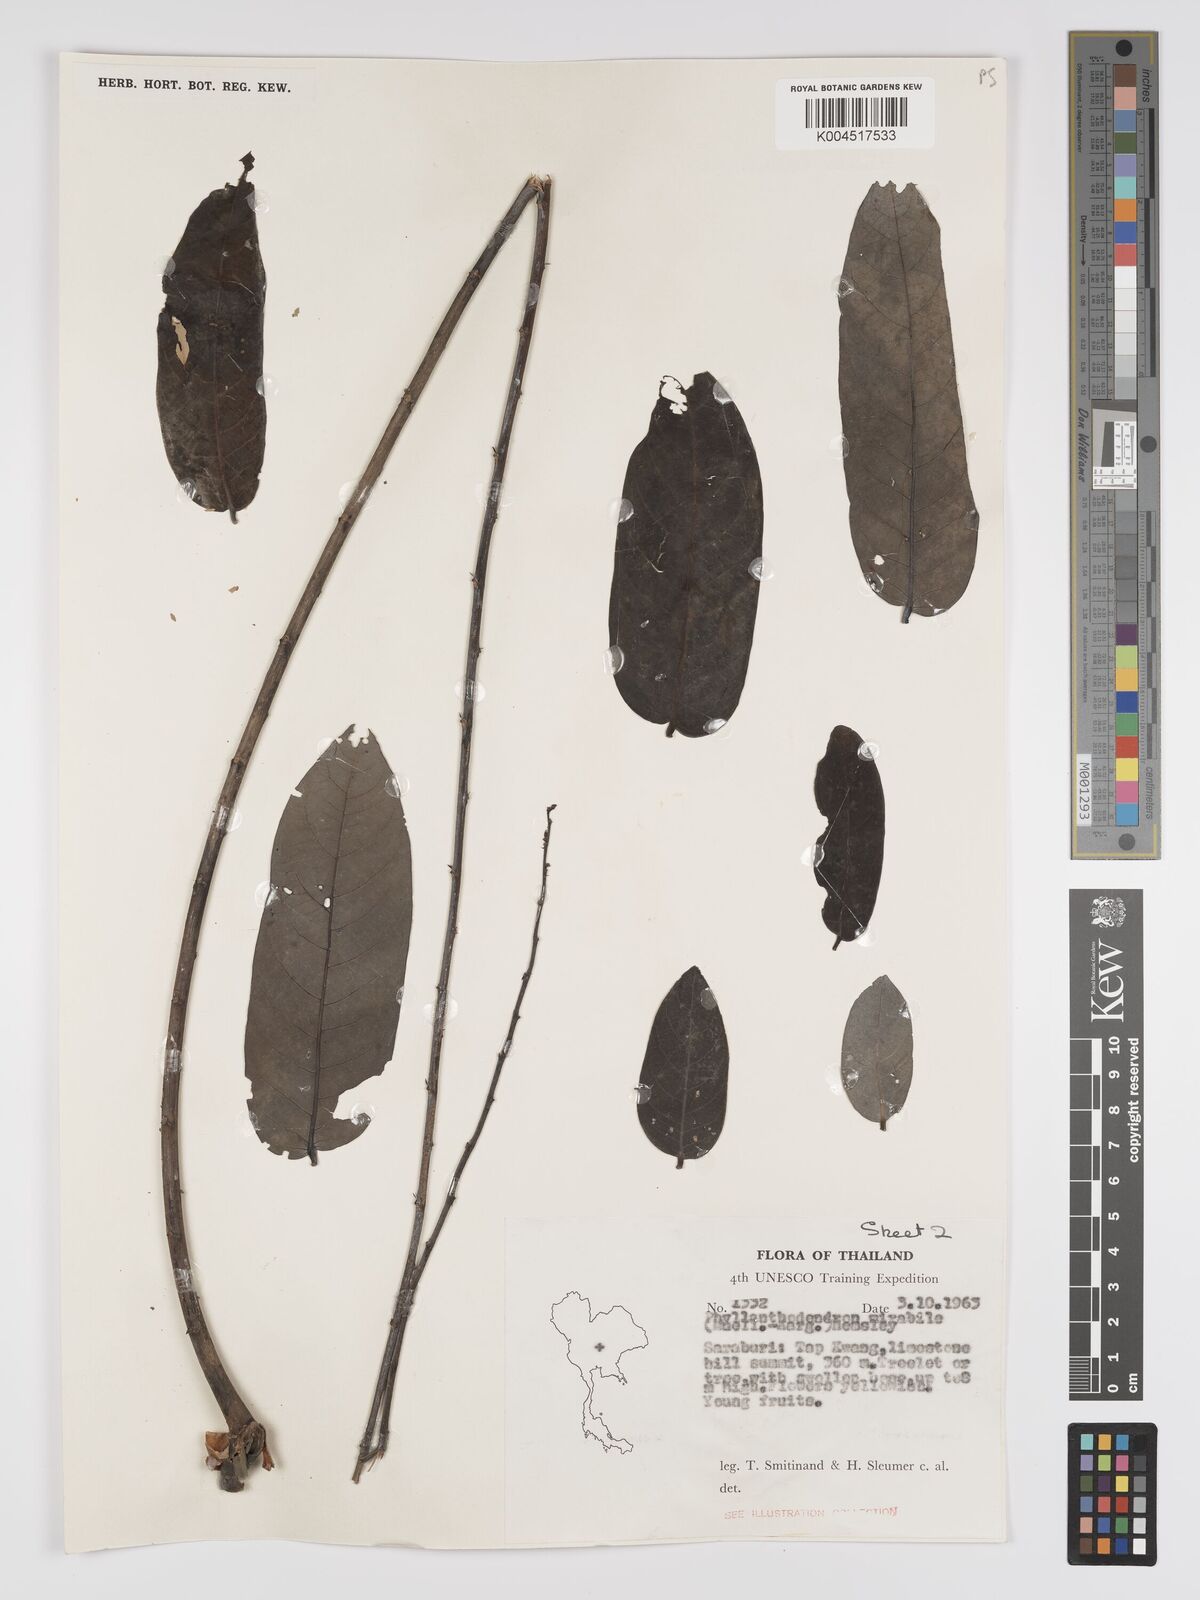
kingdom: Plantae
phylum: Tracheophyta
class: Magnoliopsida
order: Malpighiales
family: Phyllanthaceae
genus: Phyllanthus
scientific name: Phyllanthus mirabilis
